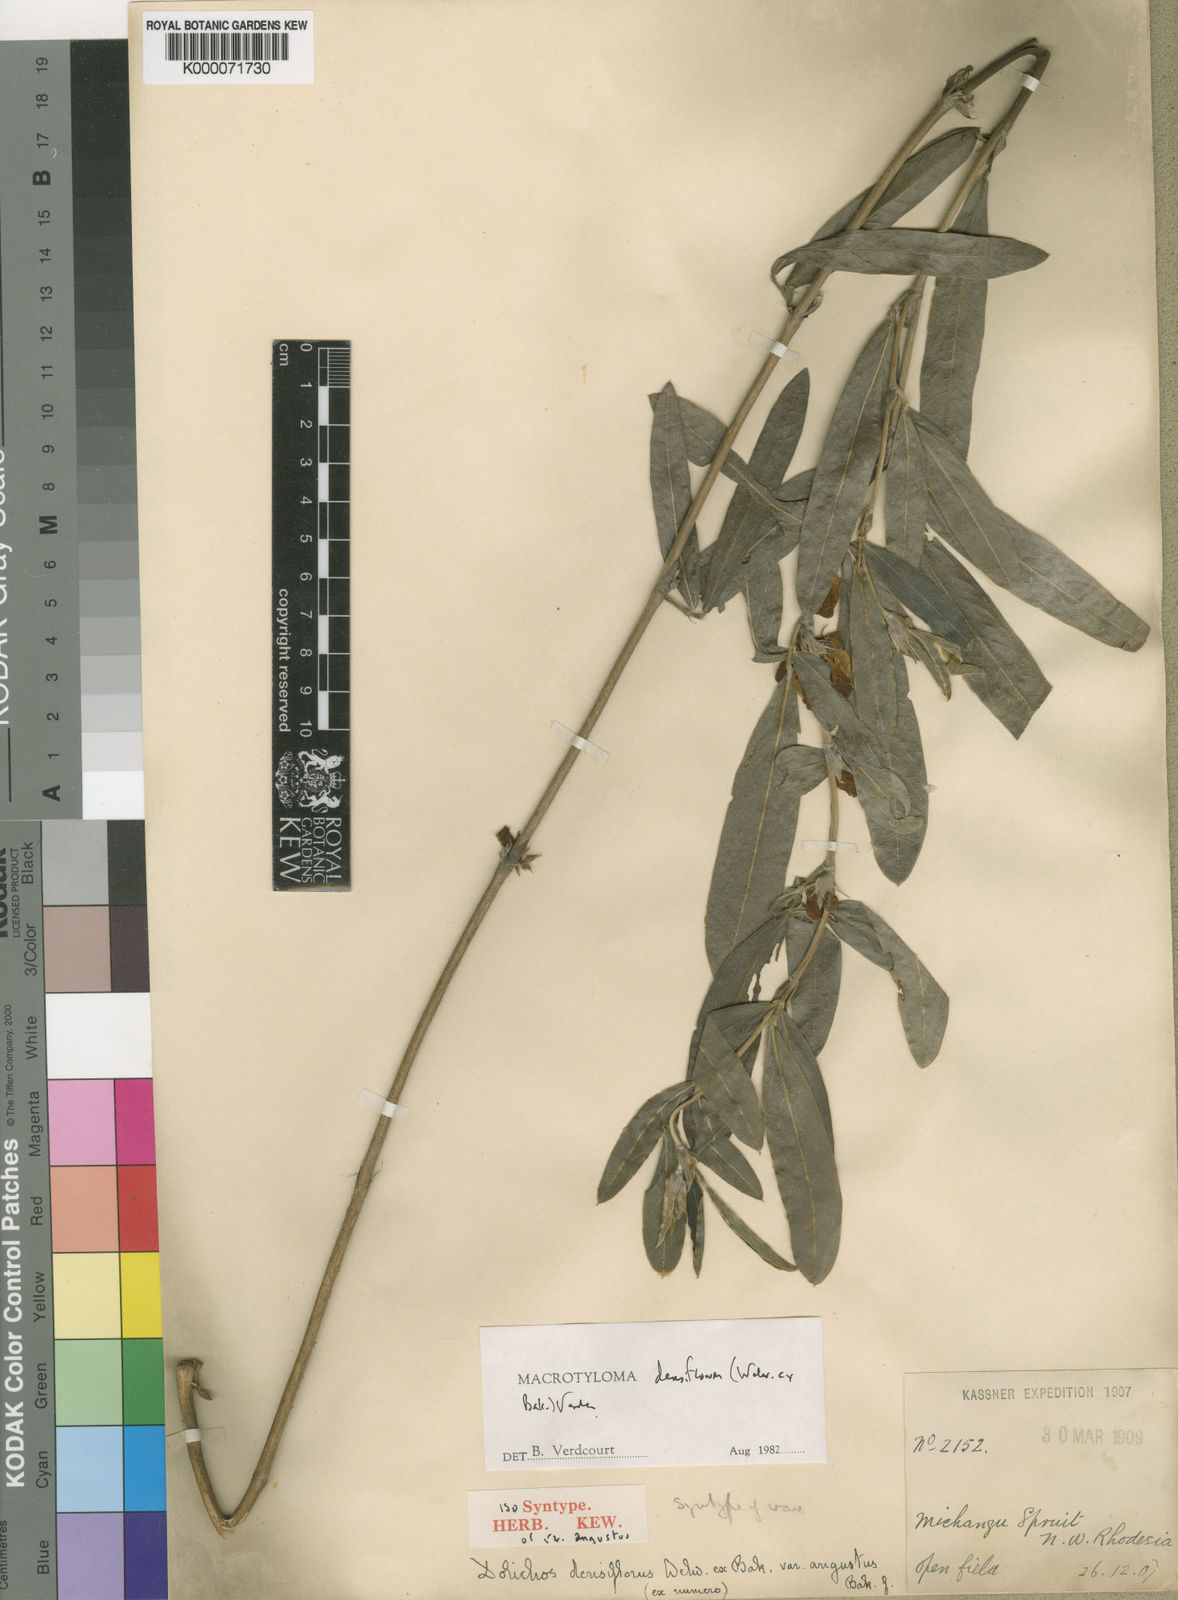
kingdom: Plantae
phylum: Tracheophyta
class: Magnoliopsida
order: Fabales
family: Fabaceae
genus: Macrotyloma
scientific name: Macrotyloma densiflorum
